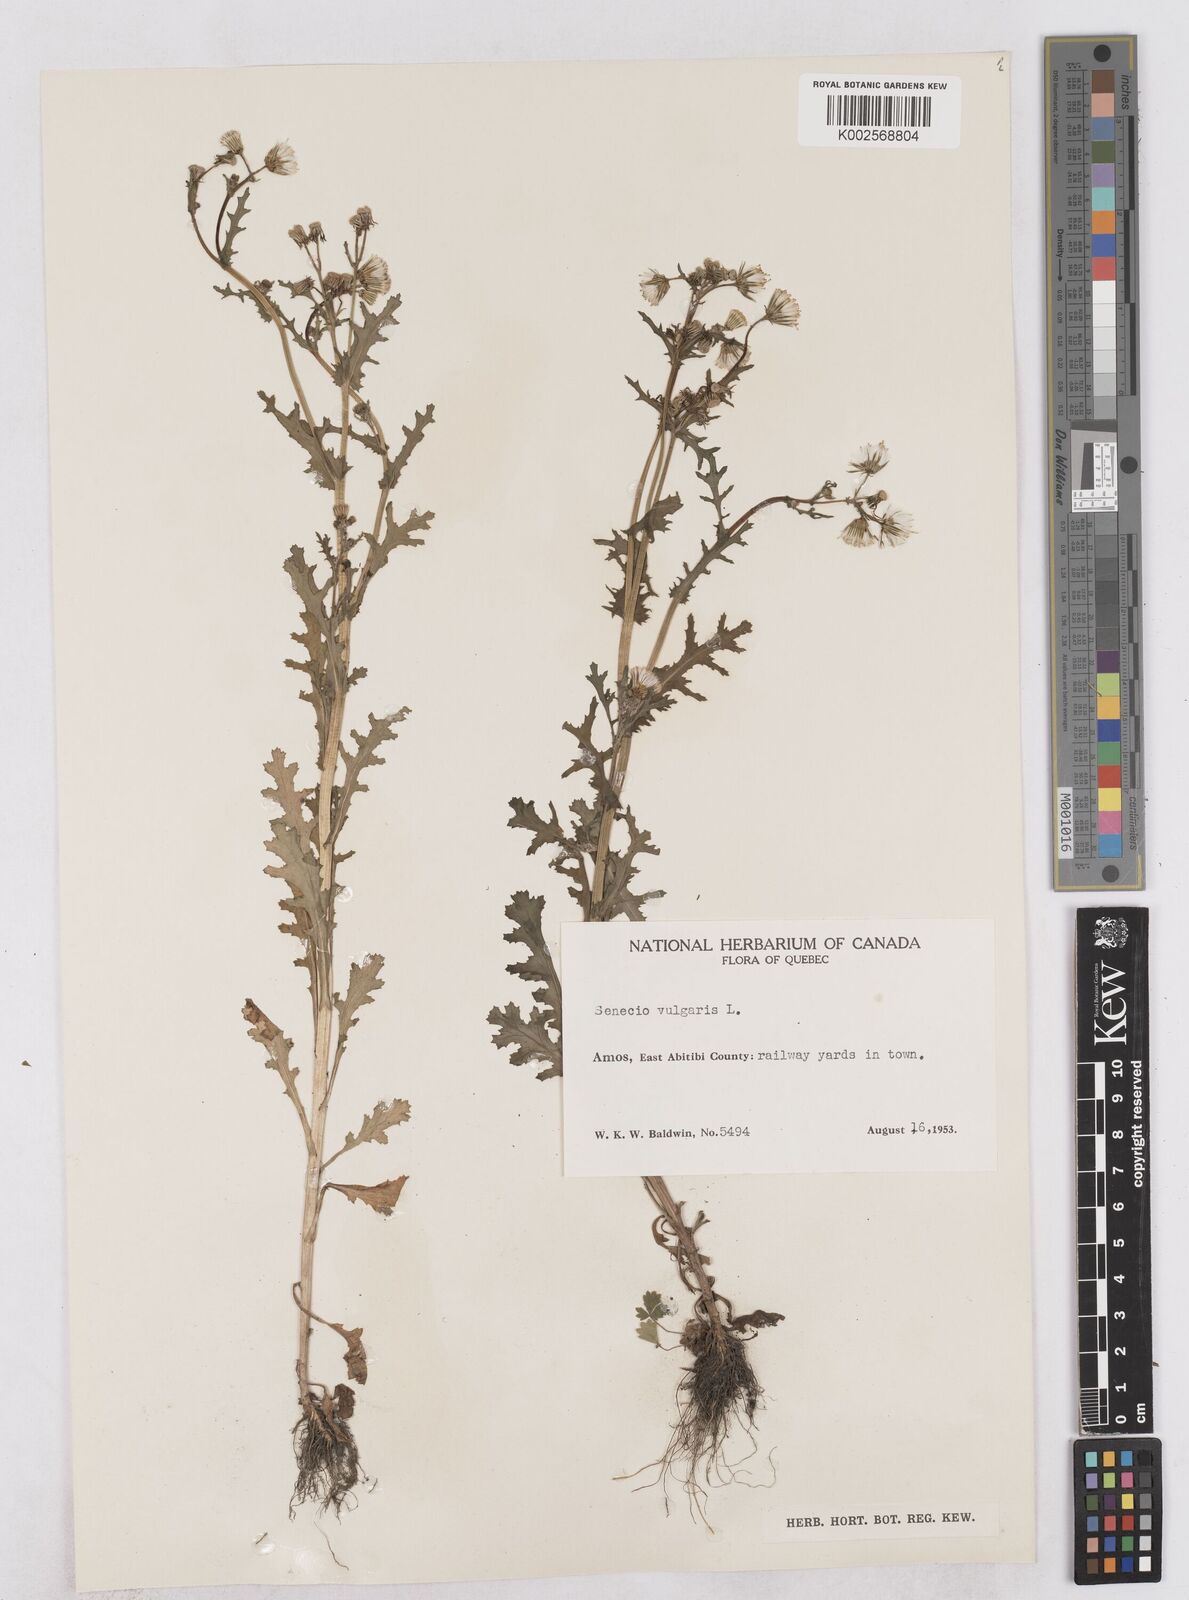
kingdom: Plantae
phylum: Tracheophyta
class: Magnoliopsida
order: Asterales
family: Asteraceae
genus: Senecio
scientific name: Senecio vulgaris
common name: Old-man-in-the-spring
